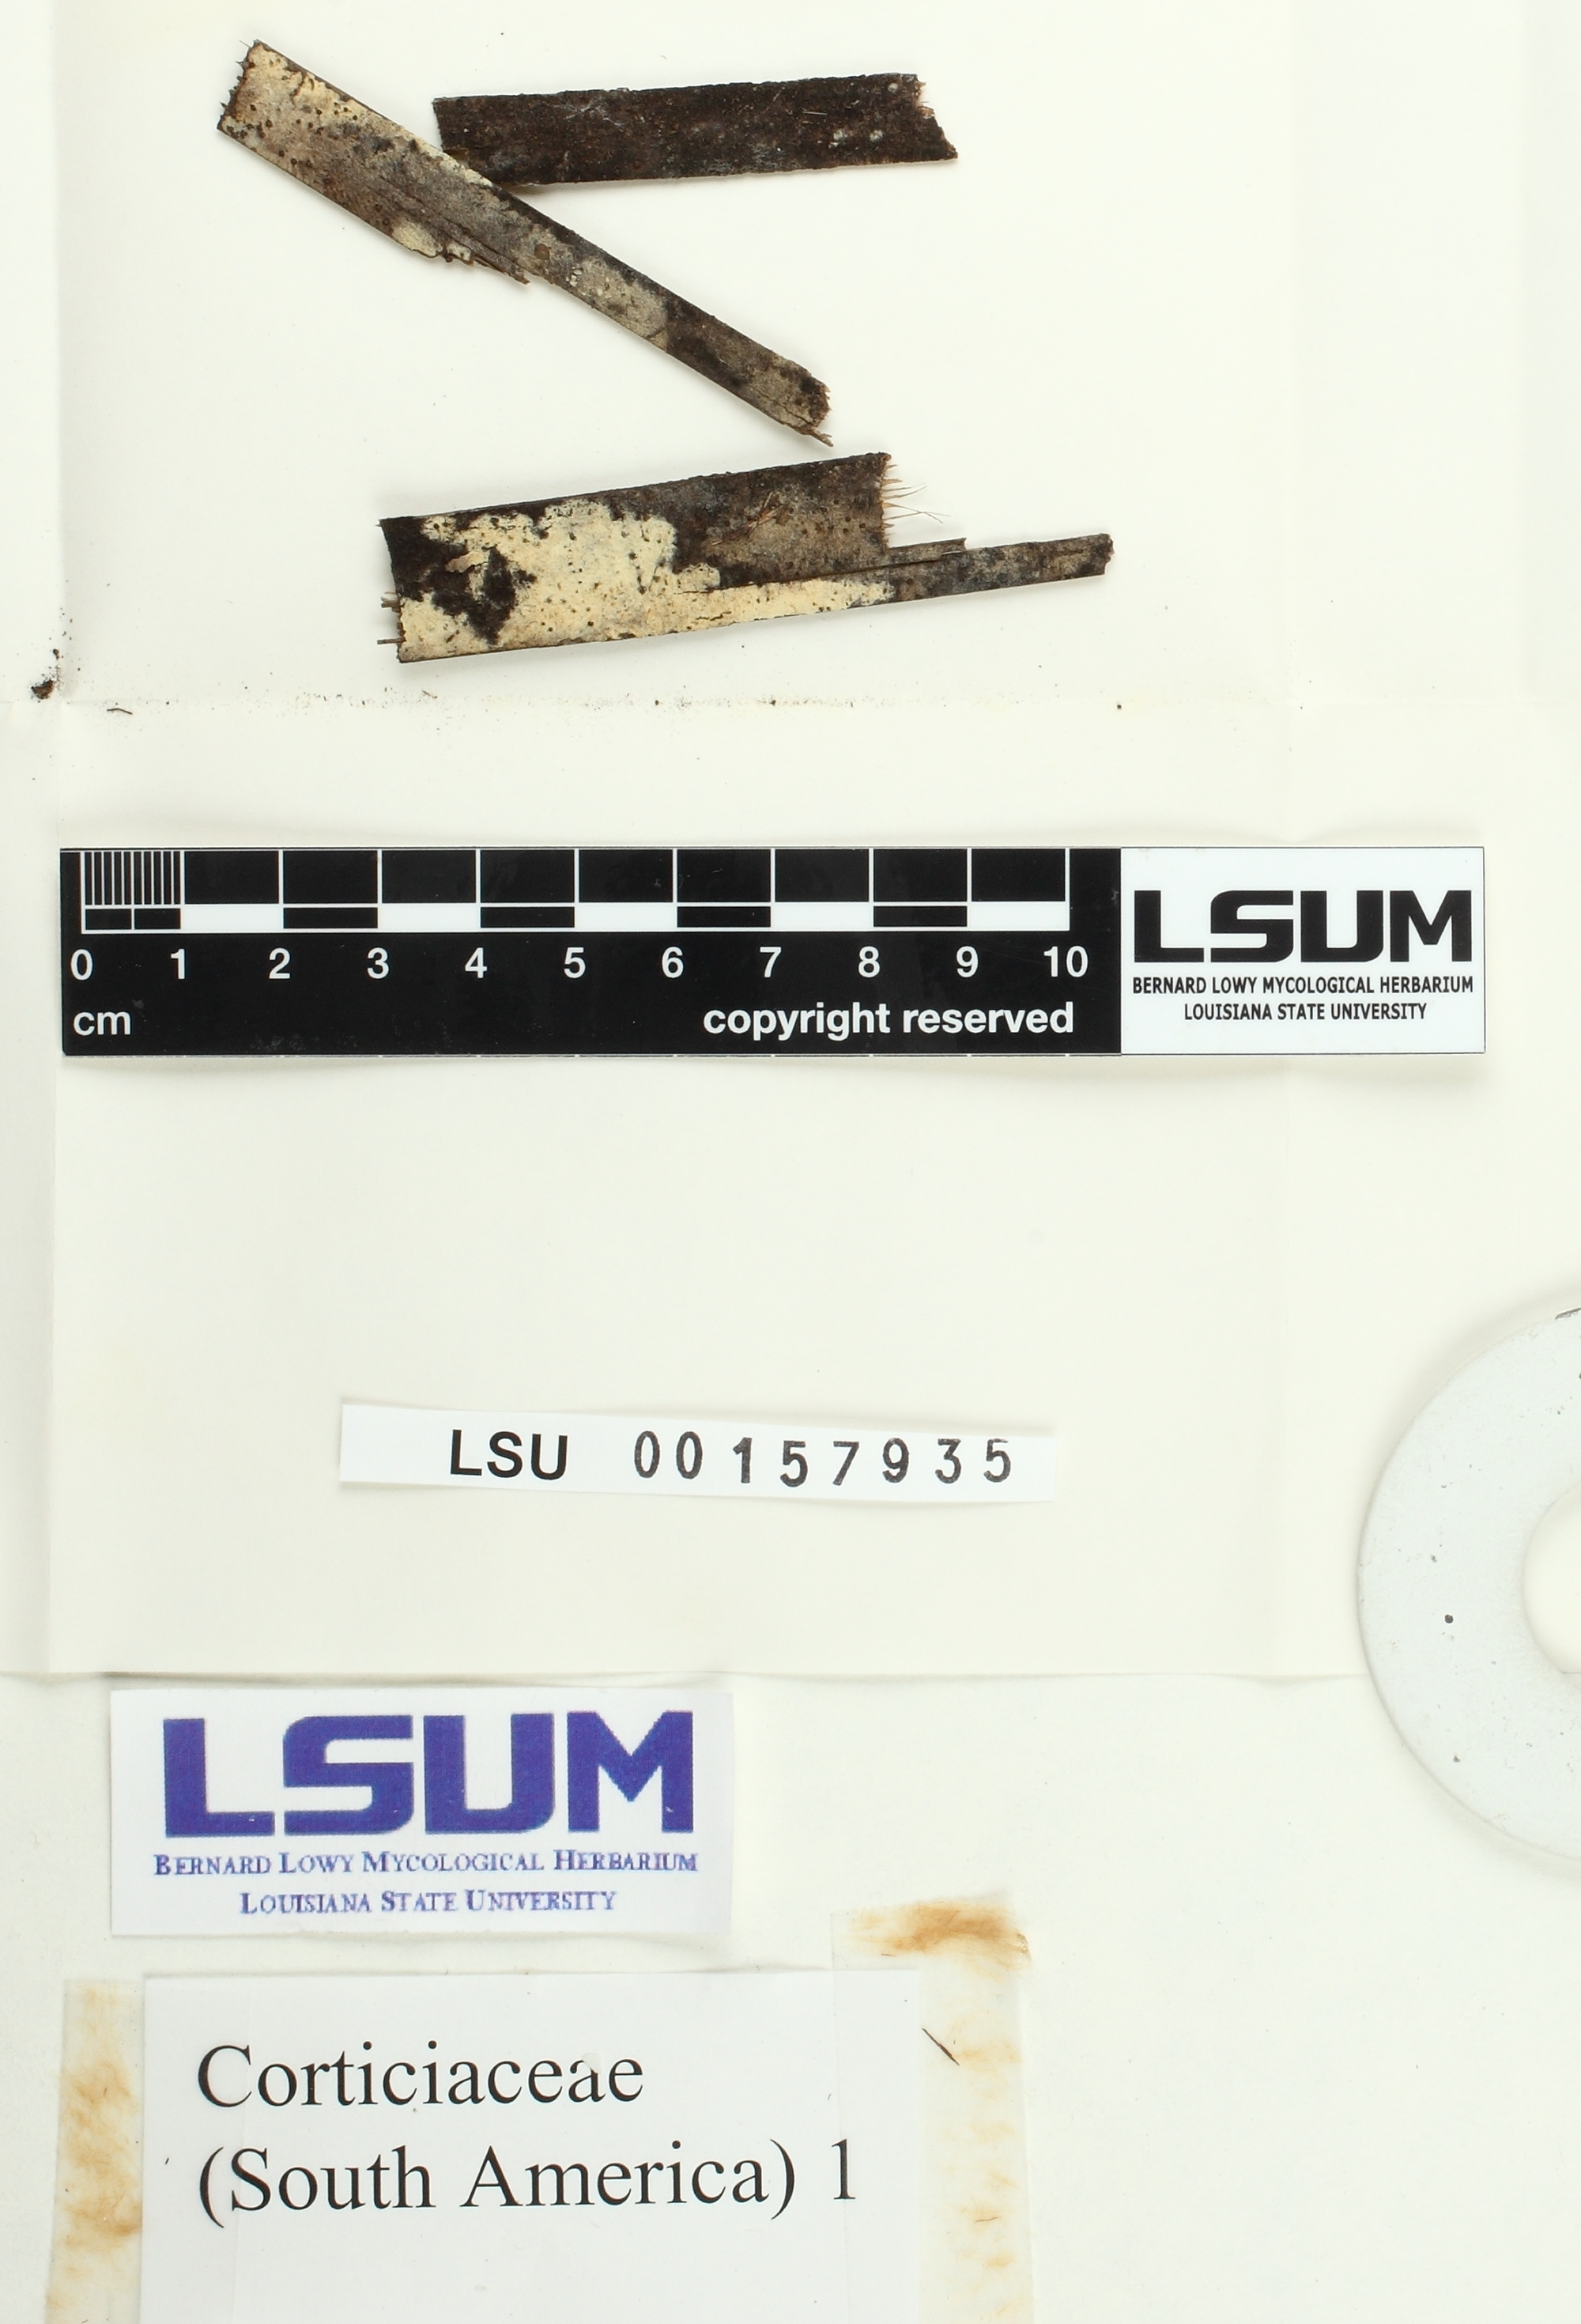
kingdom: Fungi
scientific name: Fungi
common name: Fungi
